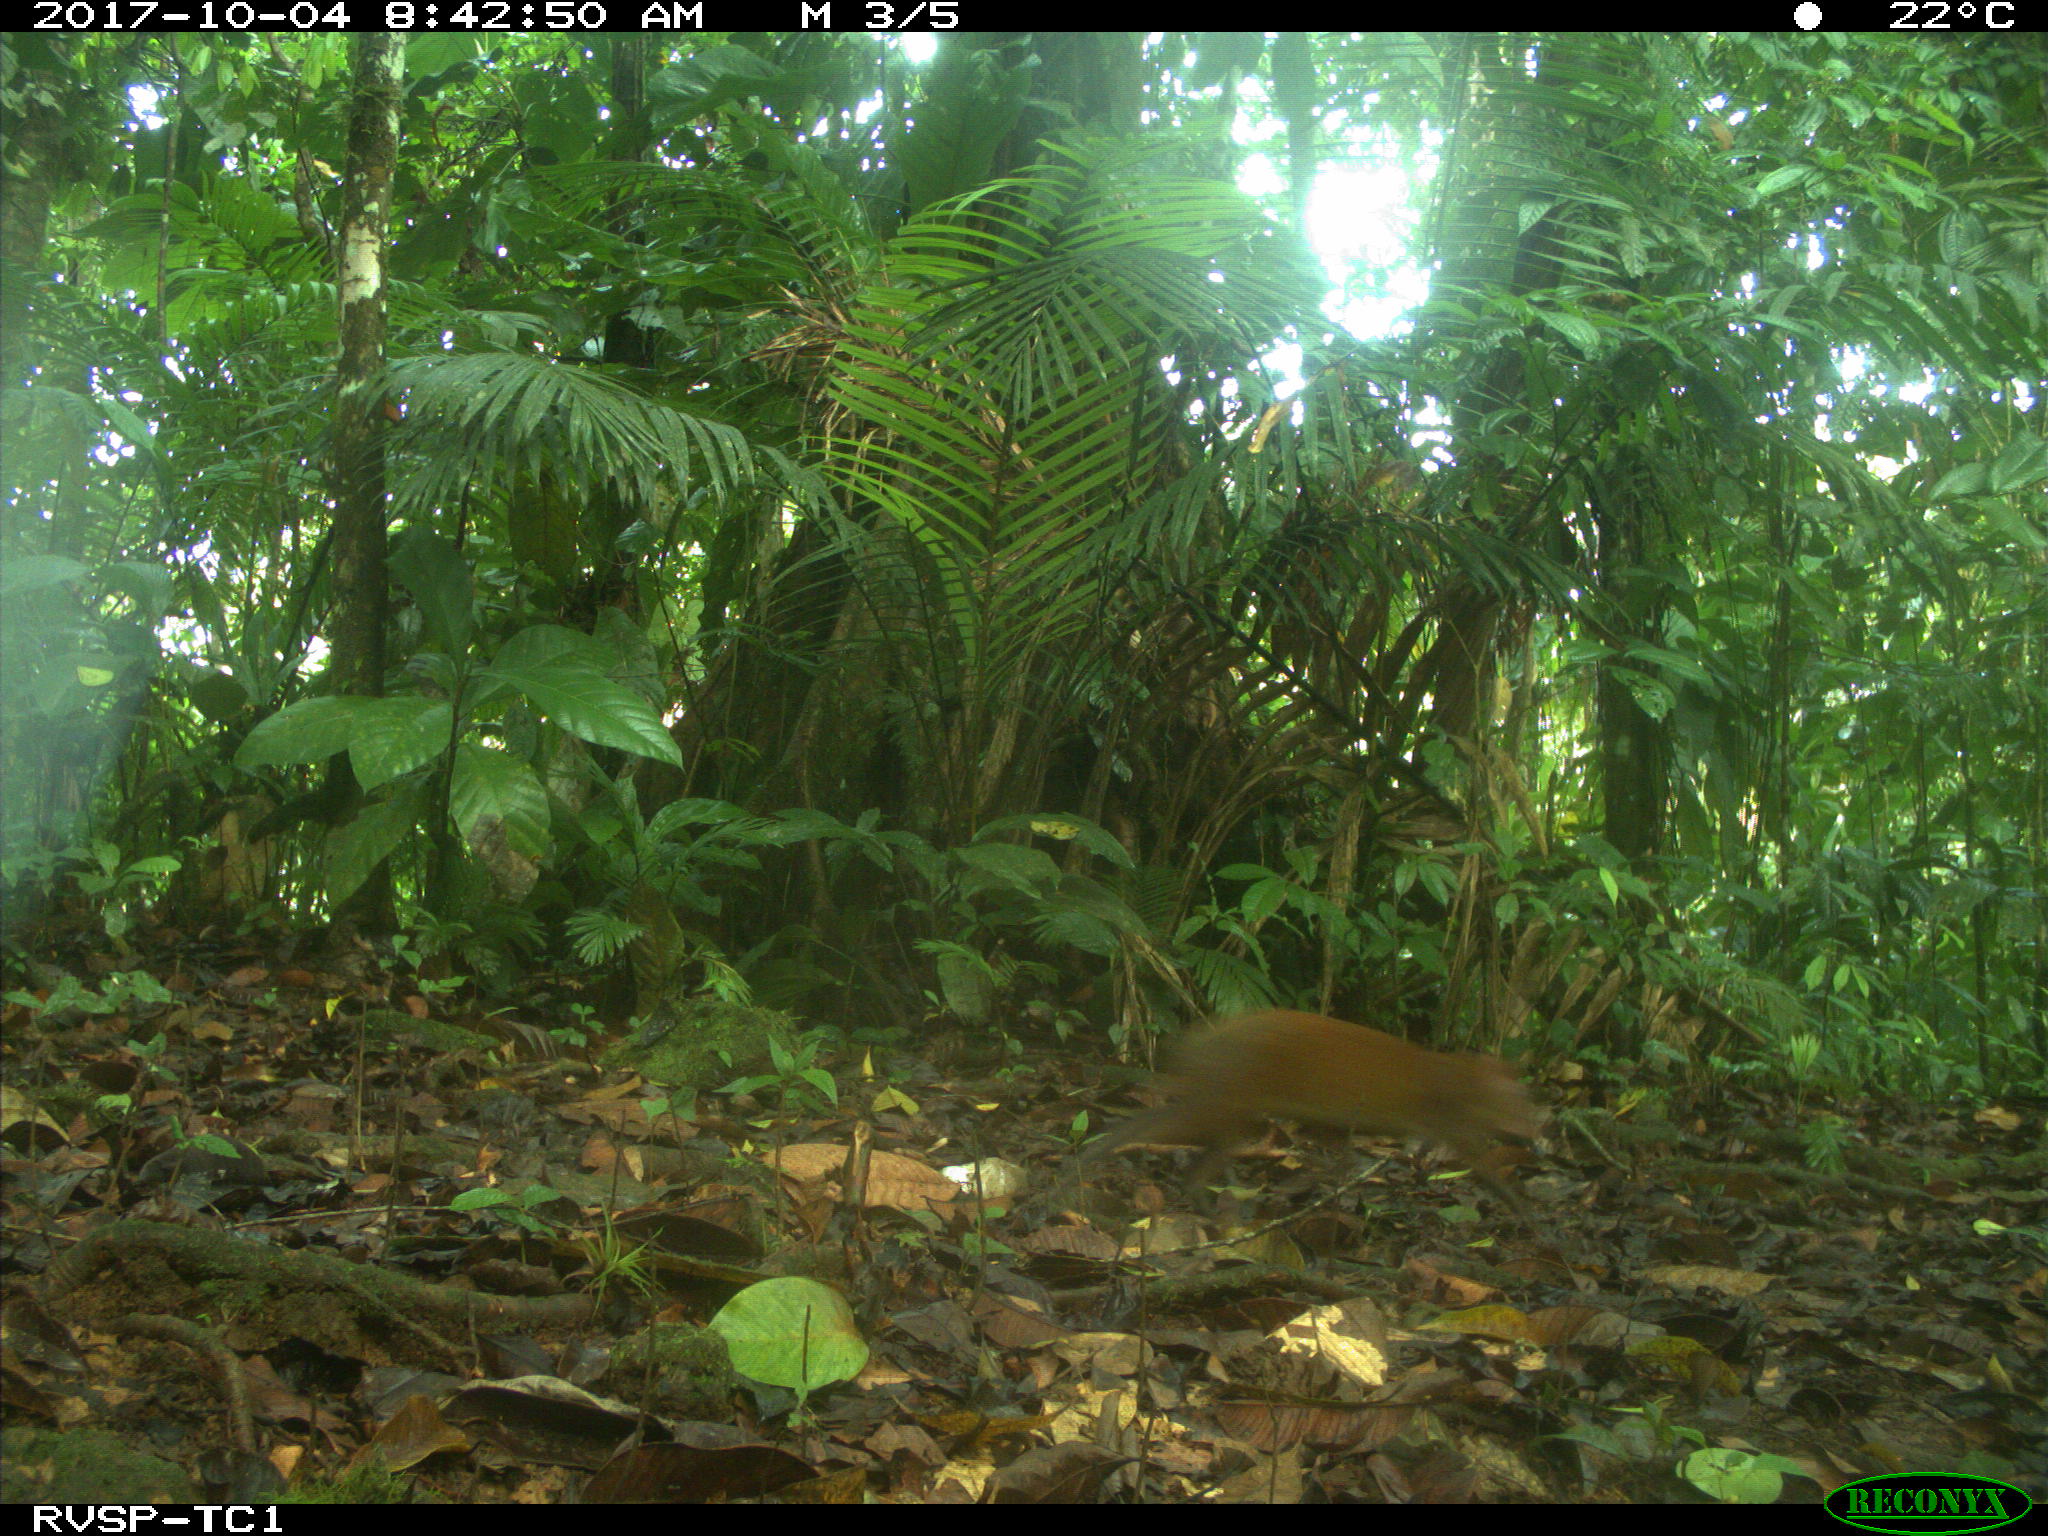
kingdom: Animalia
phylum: Chordata
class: Mammalia
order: Rodentia
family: Dasyproctidae
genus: Dasyprocta
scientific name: Dasyprocta punctata
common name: Central american agouti
